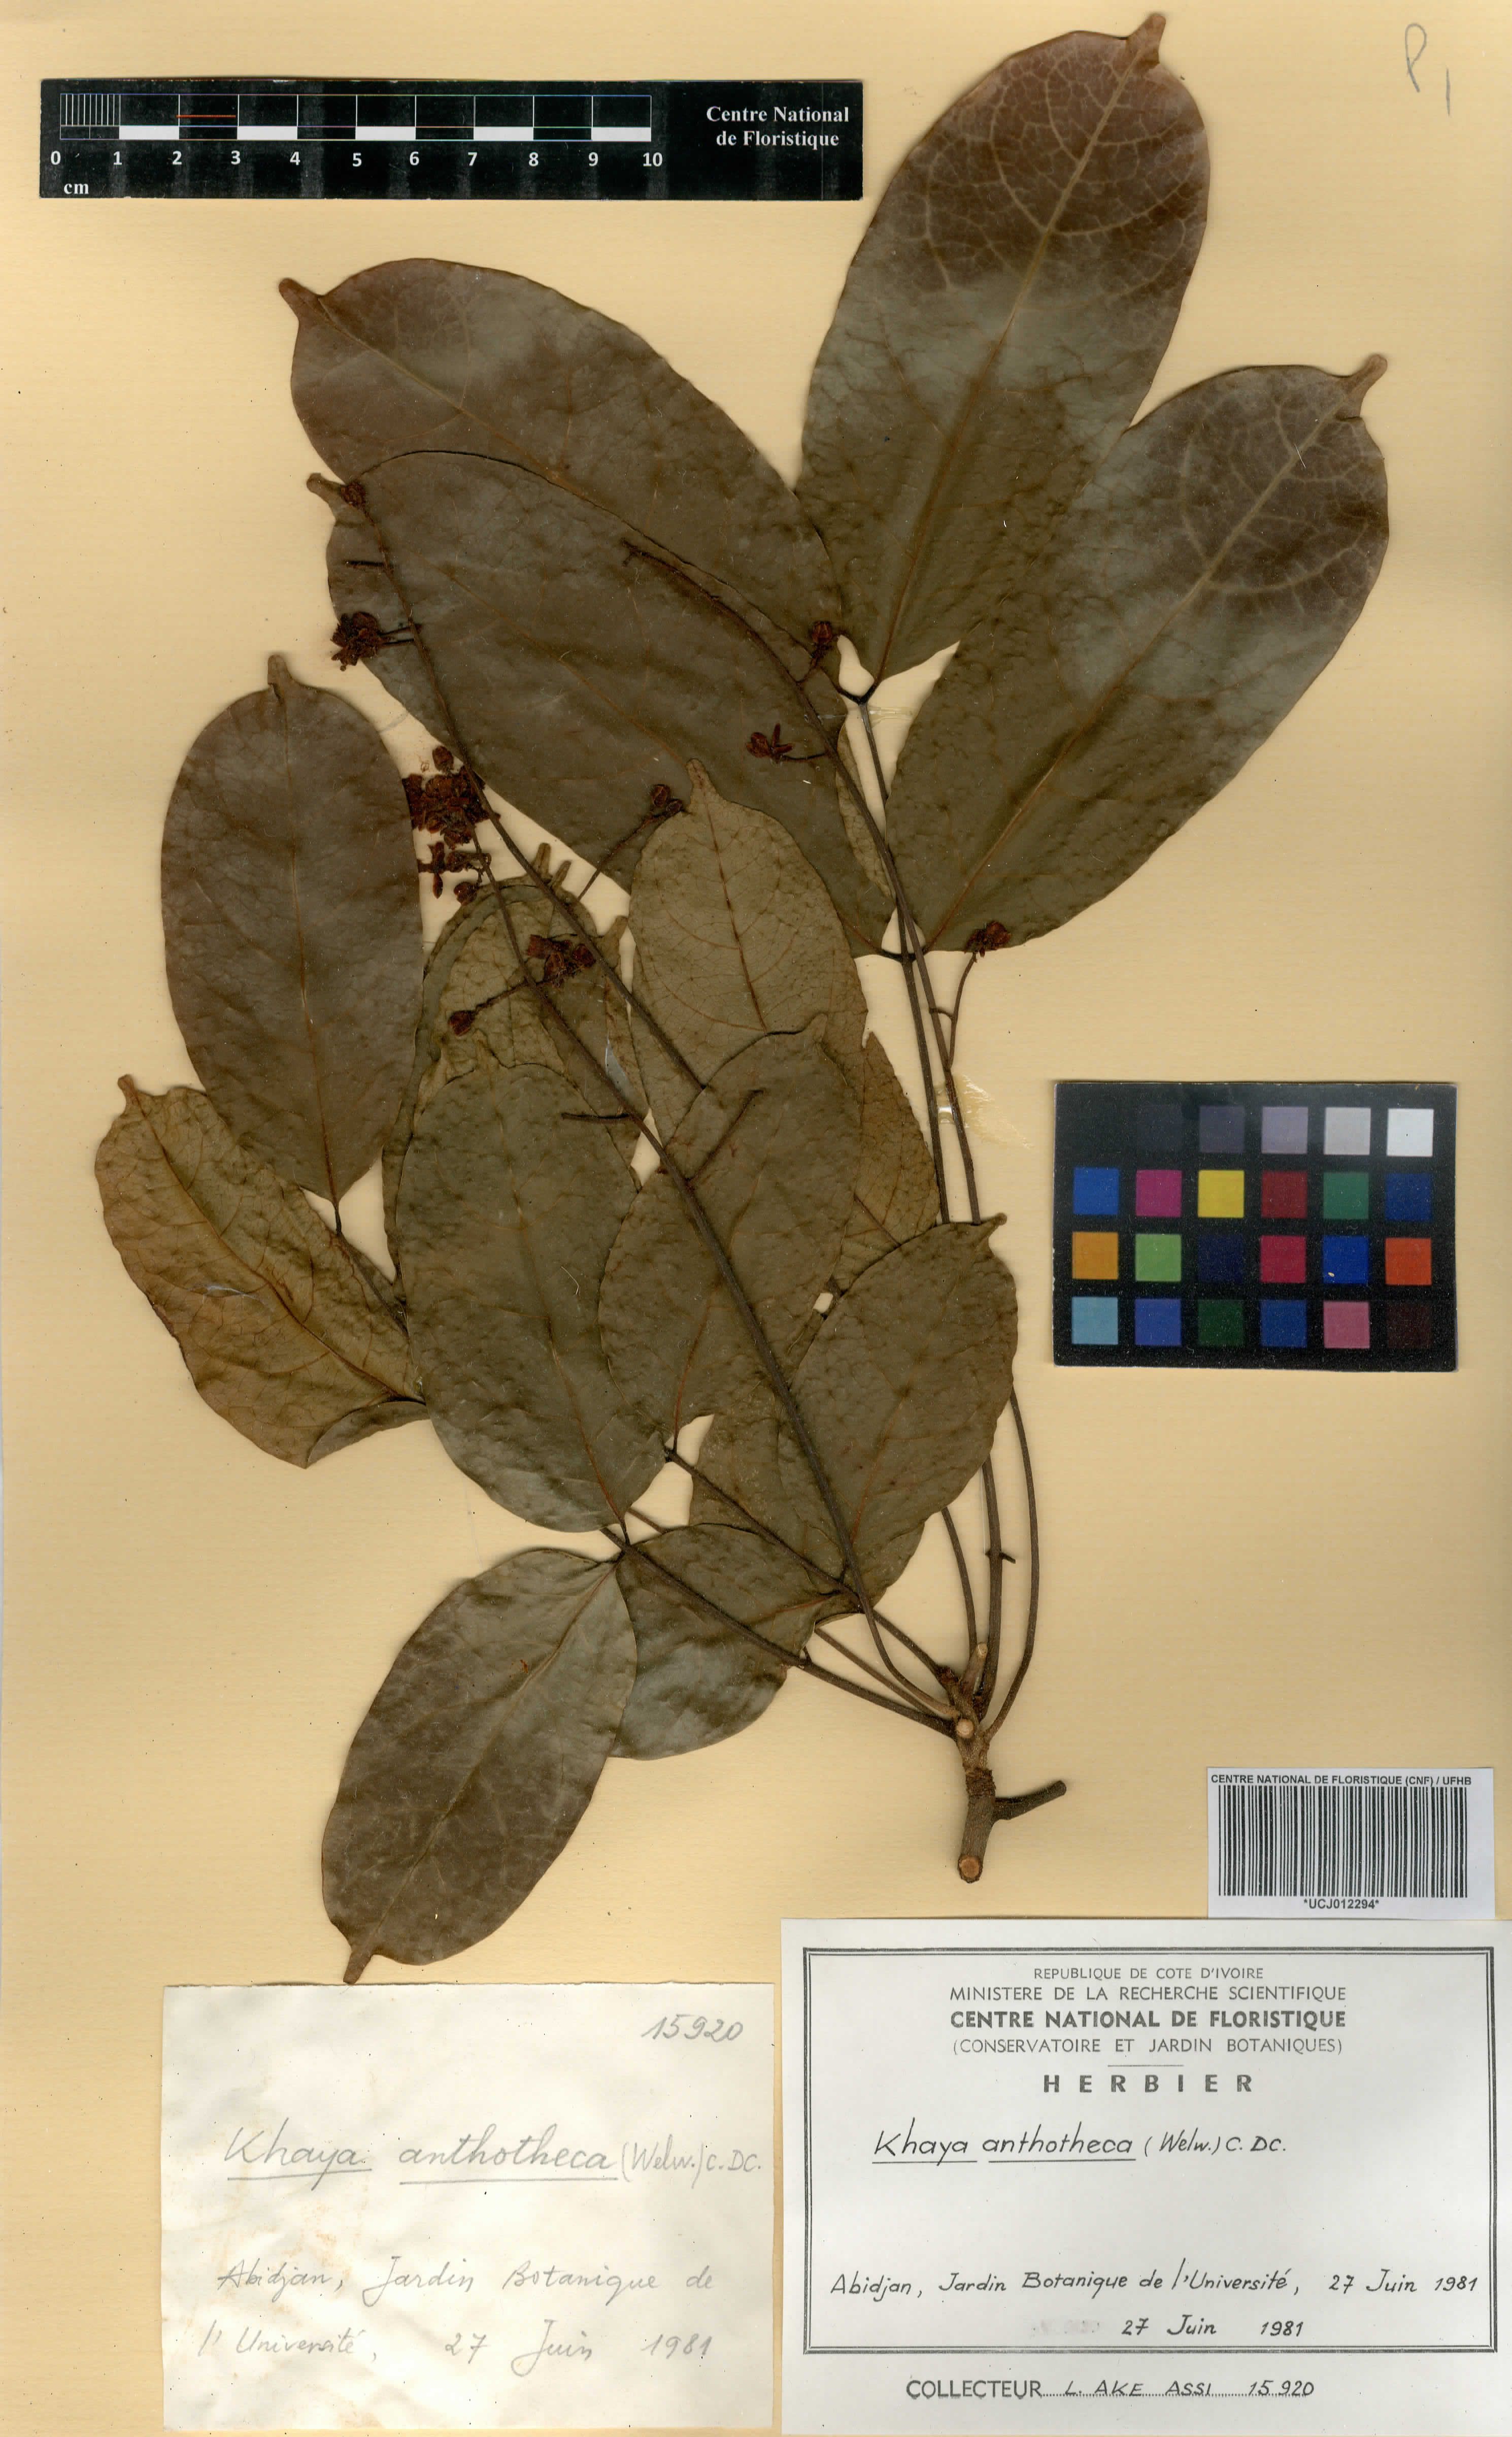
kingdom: Plantae
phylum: Tracheophyta
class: Magnoliopsida
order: Sapindales
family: Meliaceae
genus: Khaya
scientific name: Khaya anthotheca
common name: Nyasaland mahogany
